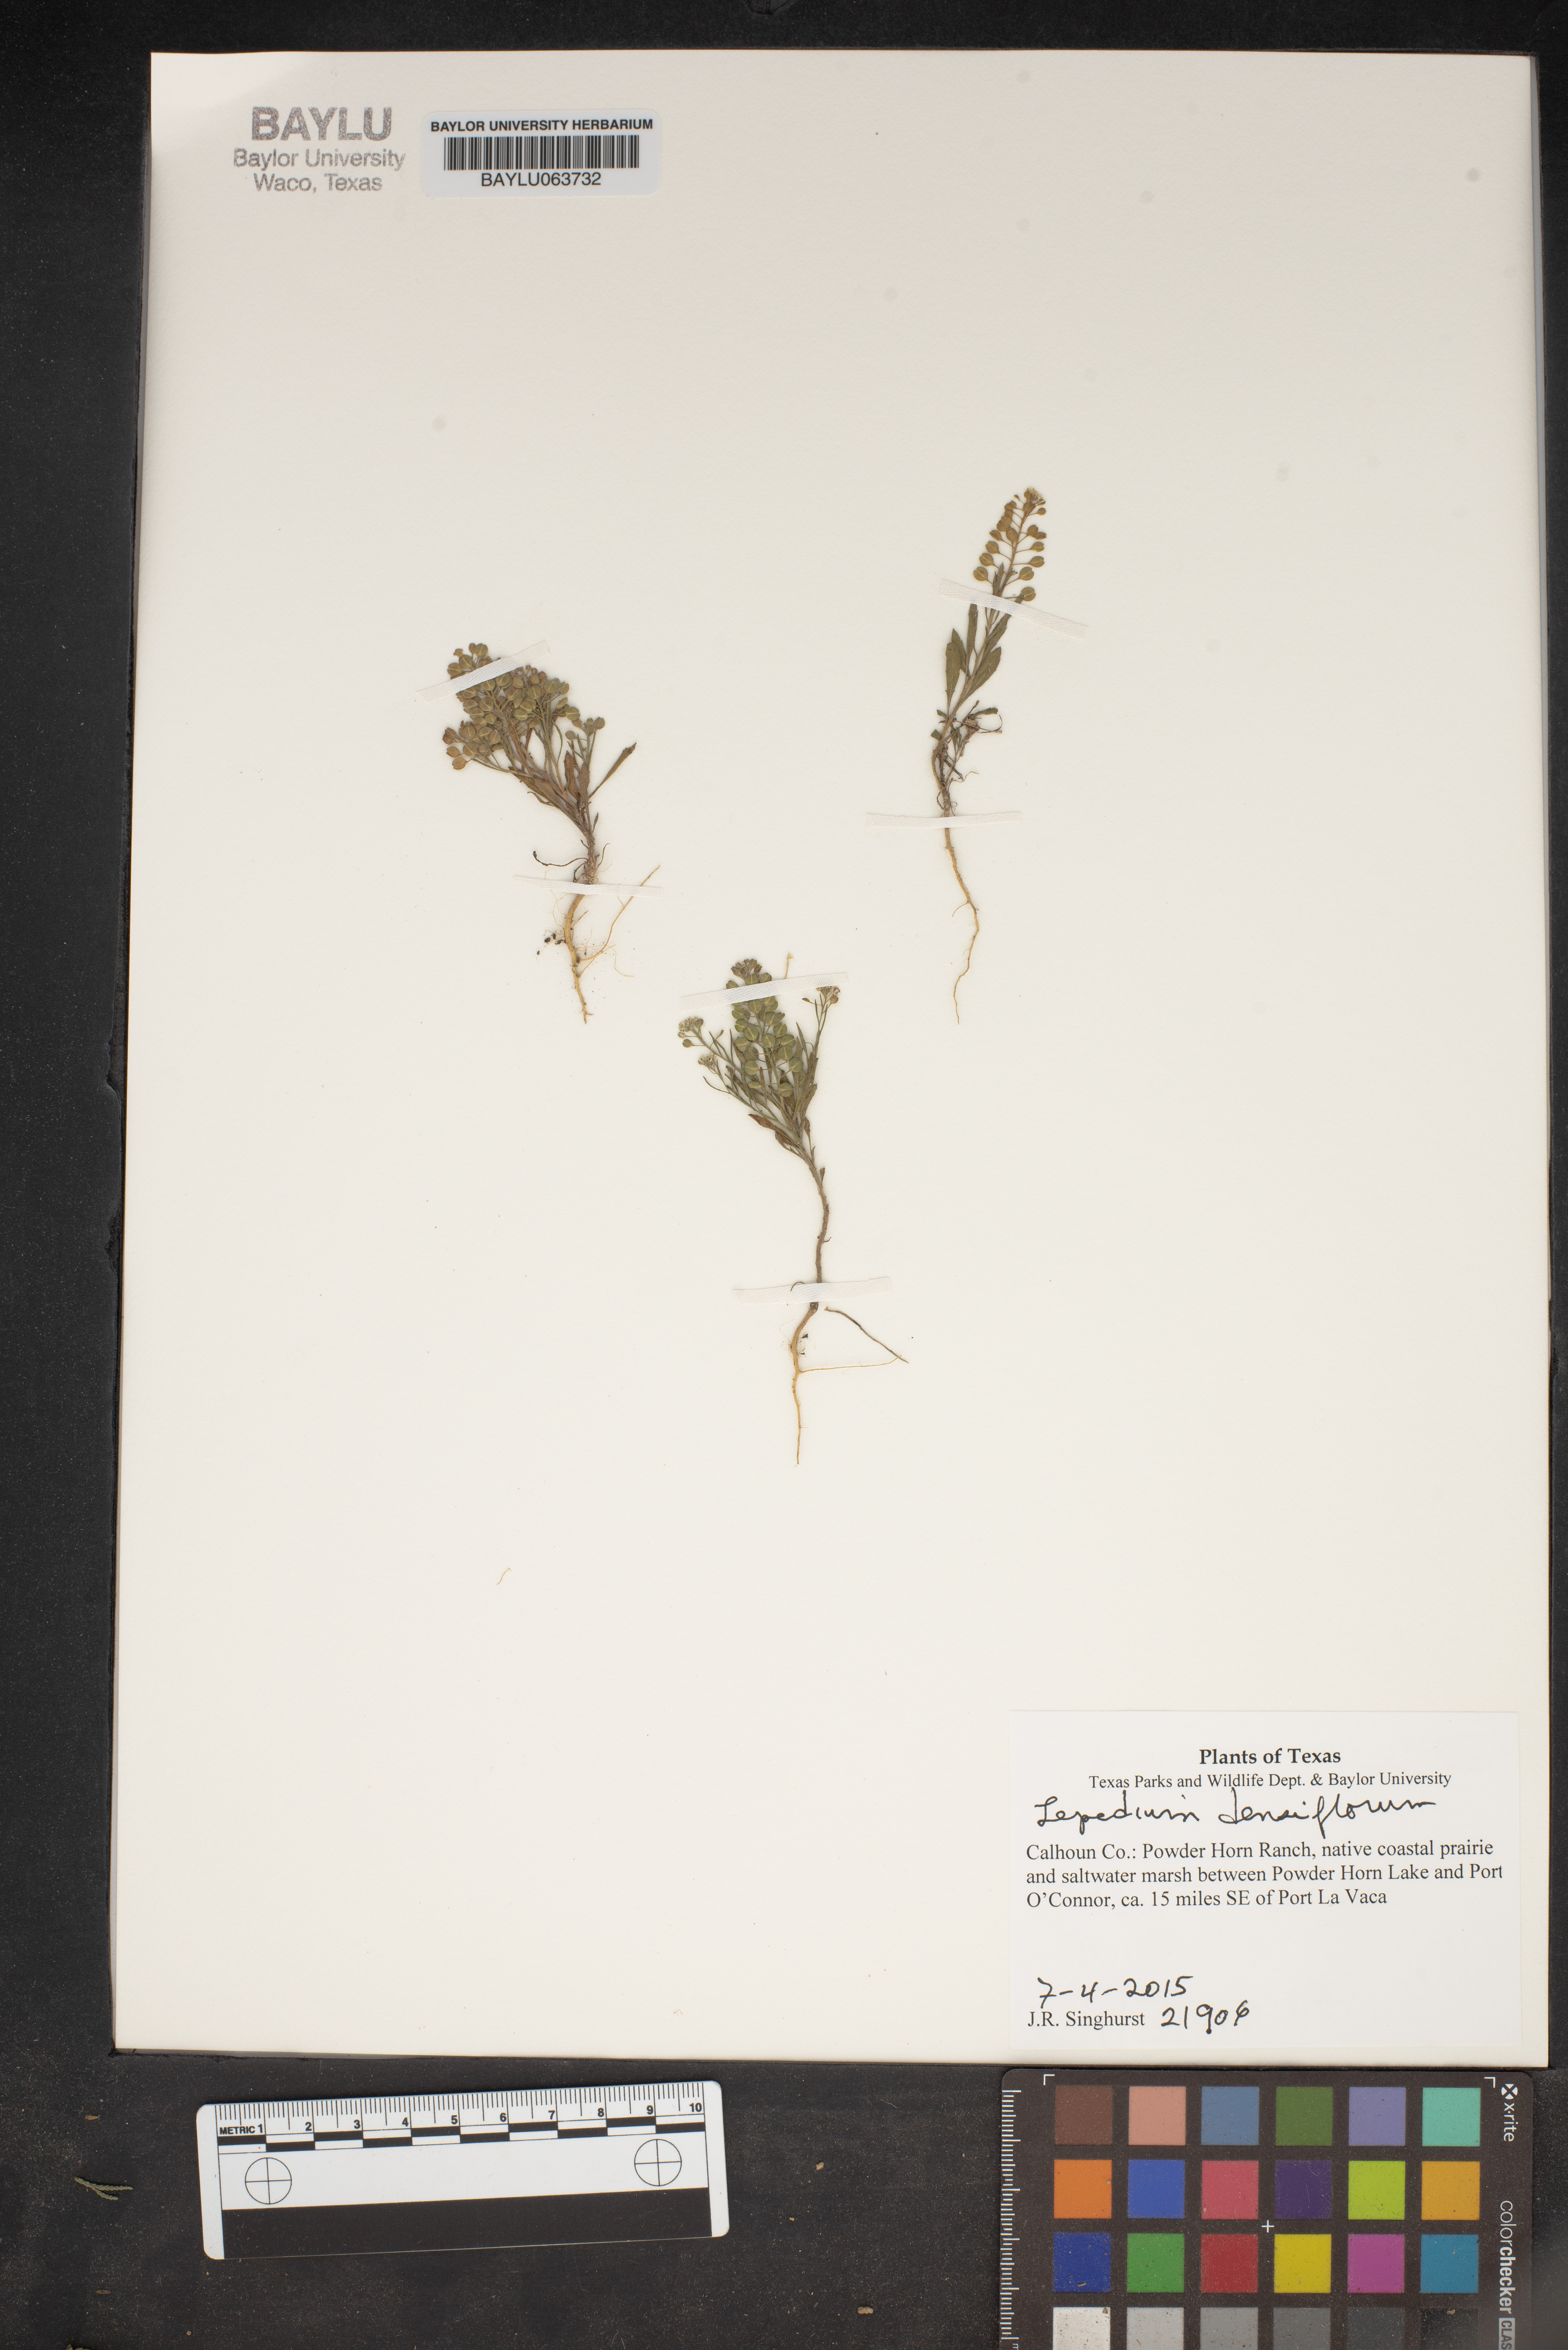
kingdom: Plantae
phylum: Tracheophyta
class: Magnoliopsida
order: Brassicales
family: Brassicaceae
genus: Lepidium
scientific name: Lepidium densiflorum
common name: Miner's pepperwort
